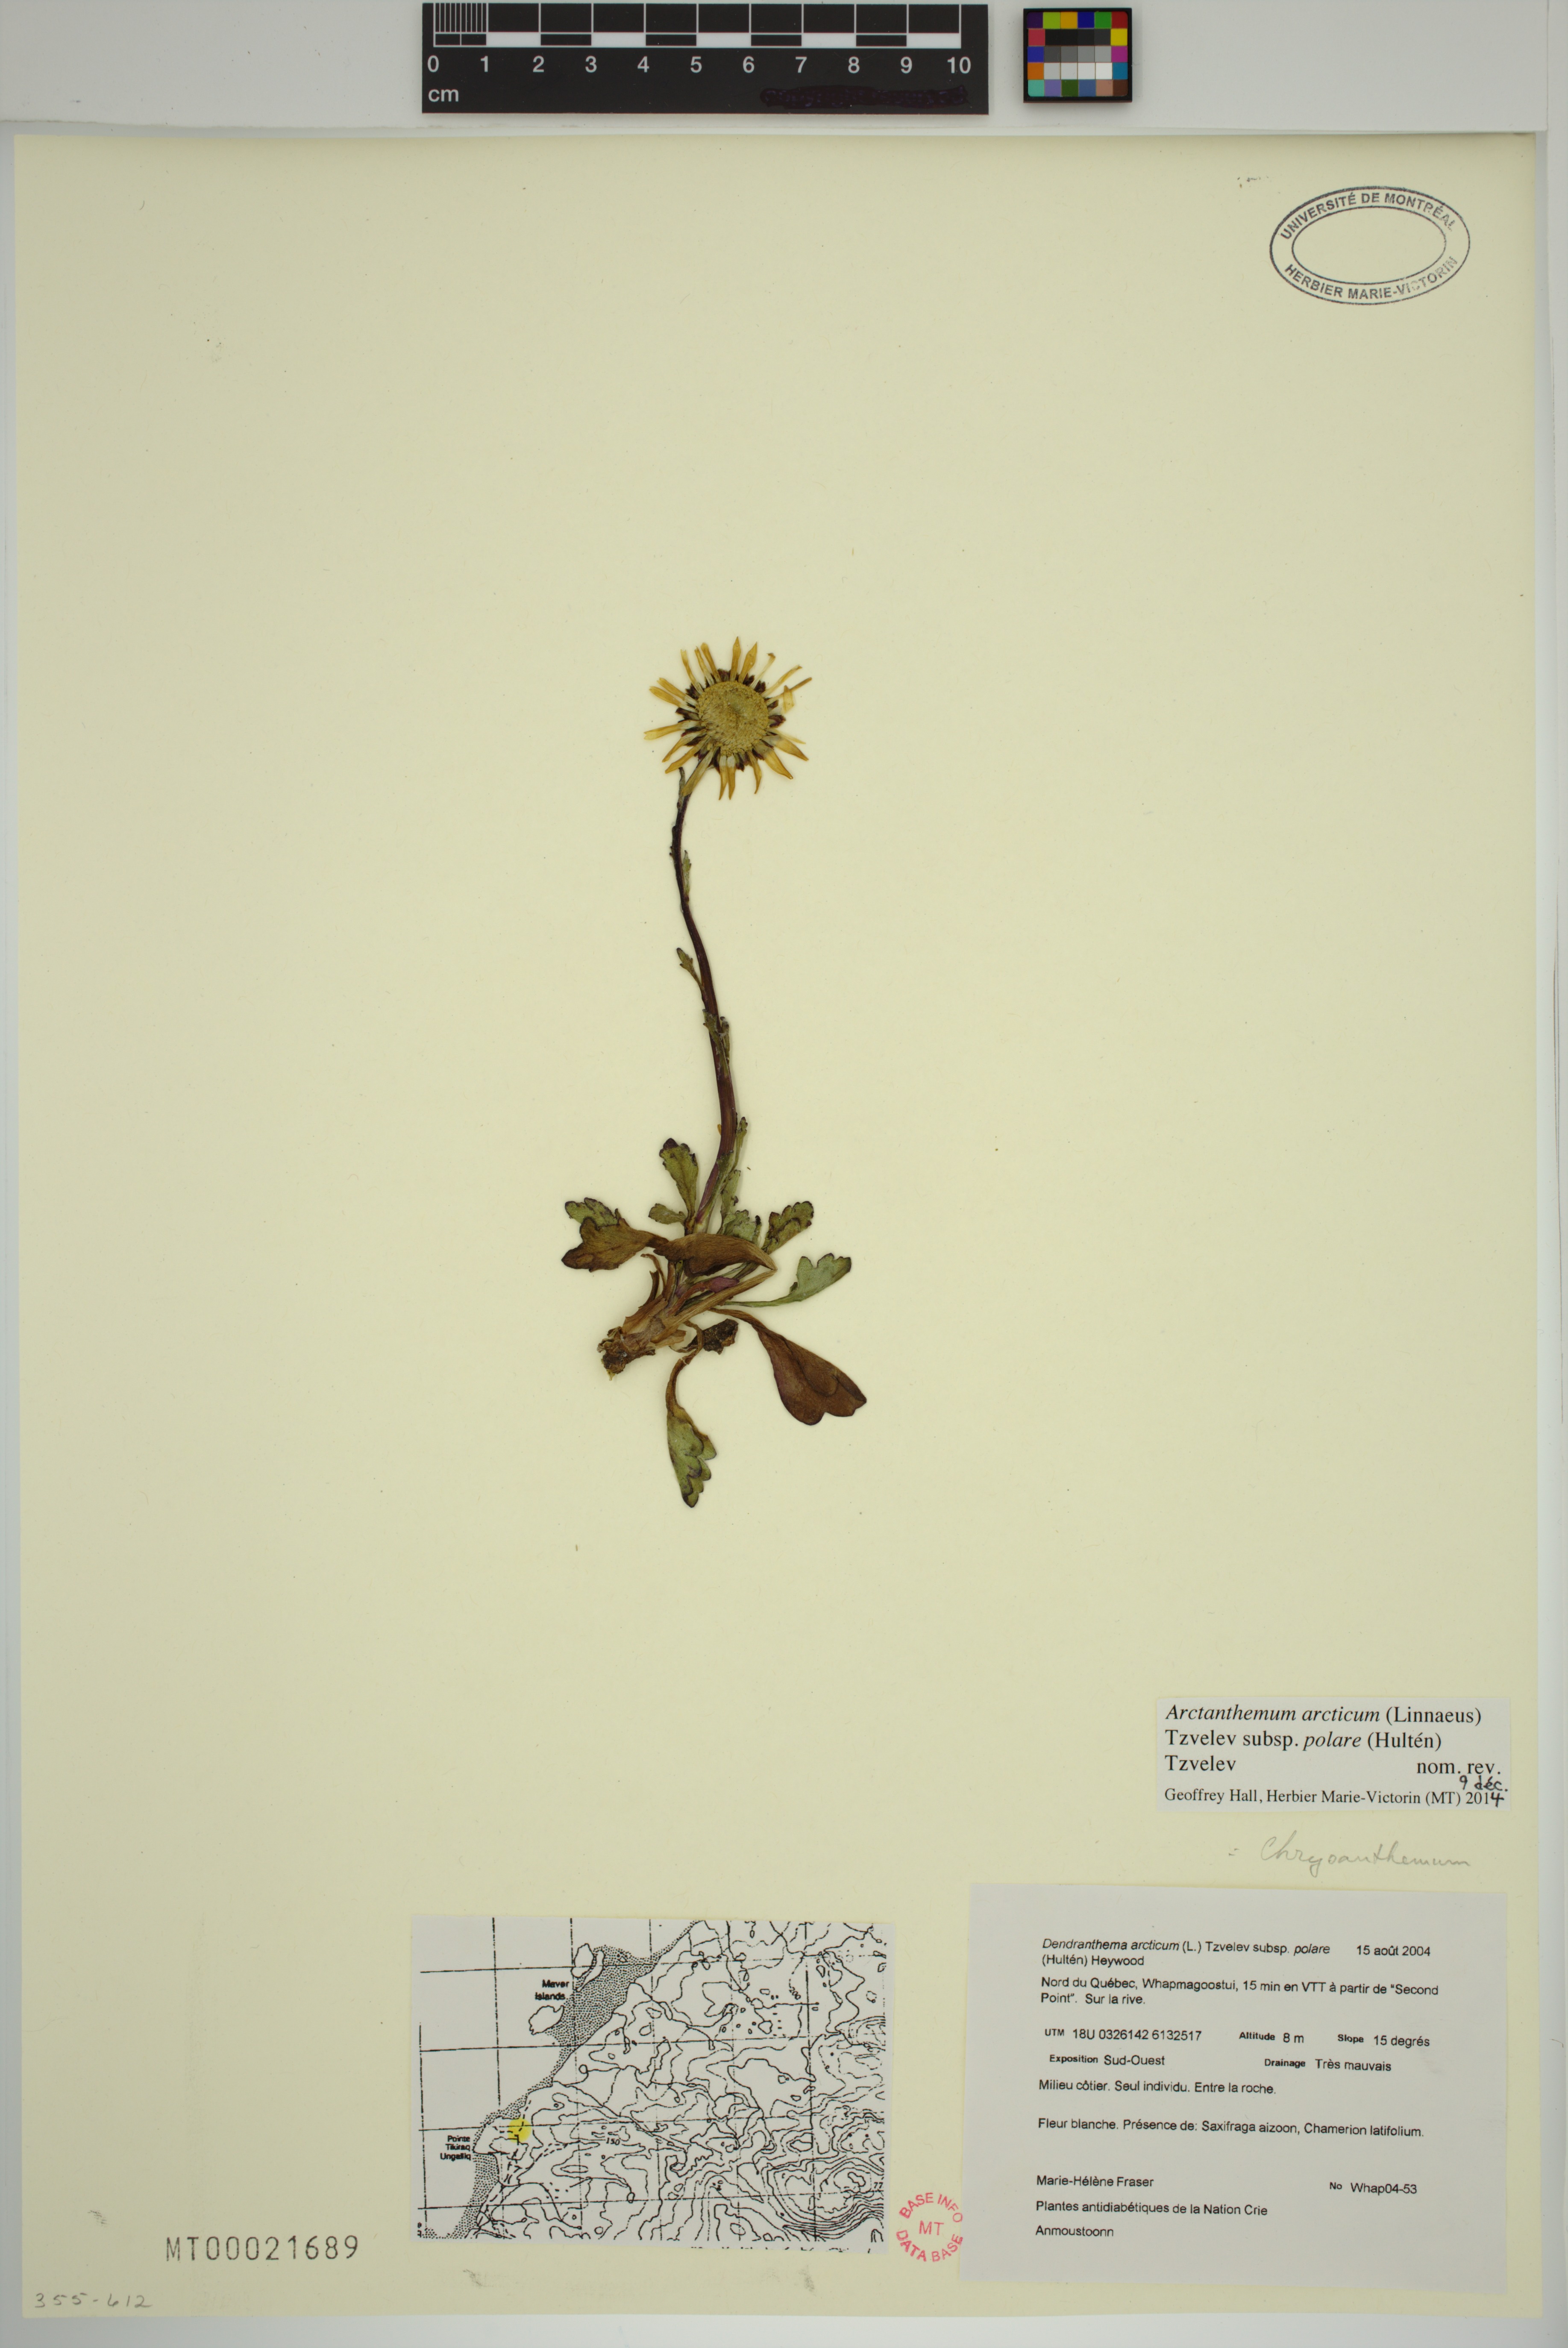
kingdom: Plantae
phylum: Tracheophyta
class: Magnoliopsida
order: Asterales
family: Asteraceae
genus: Arctanthemum
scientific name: Arctanthemum arcticum
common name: Arctic daisy
